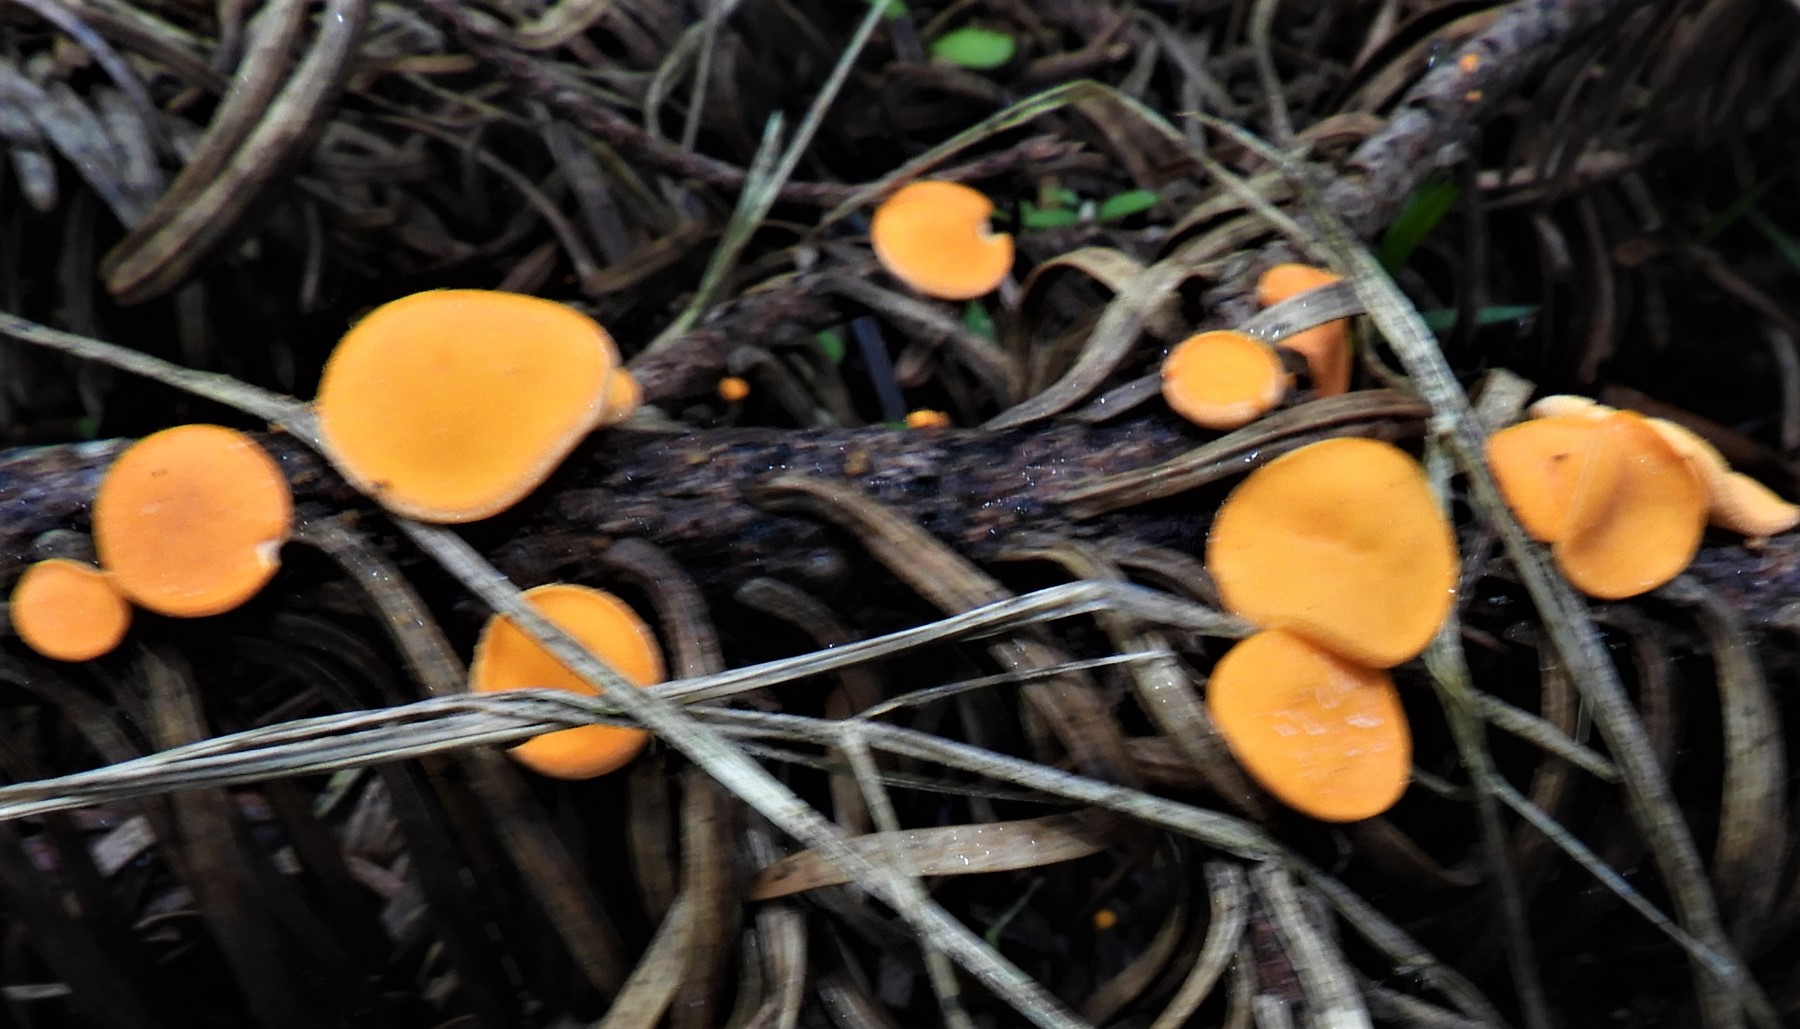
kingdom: Fungi
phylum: Ascomycota
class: Pezizomycetes
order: Pezizales
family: Sarcoscyphaceae
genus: Pithya
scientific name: Pithya vulgaris
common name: stor dukatbæger
